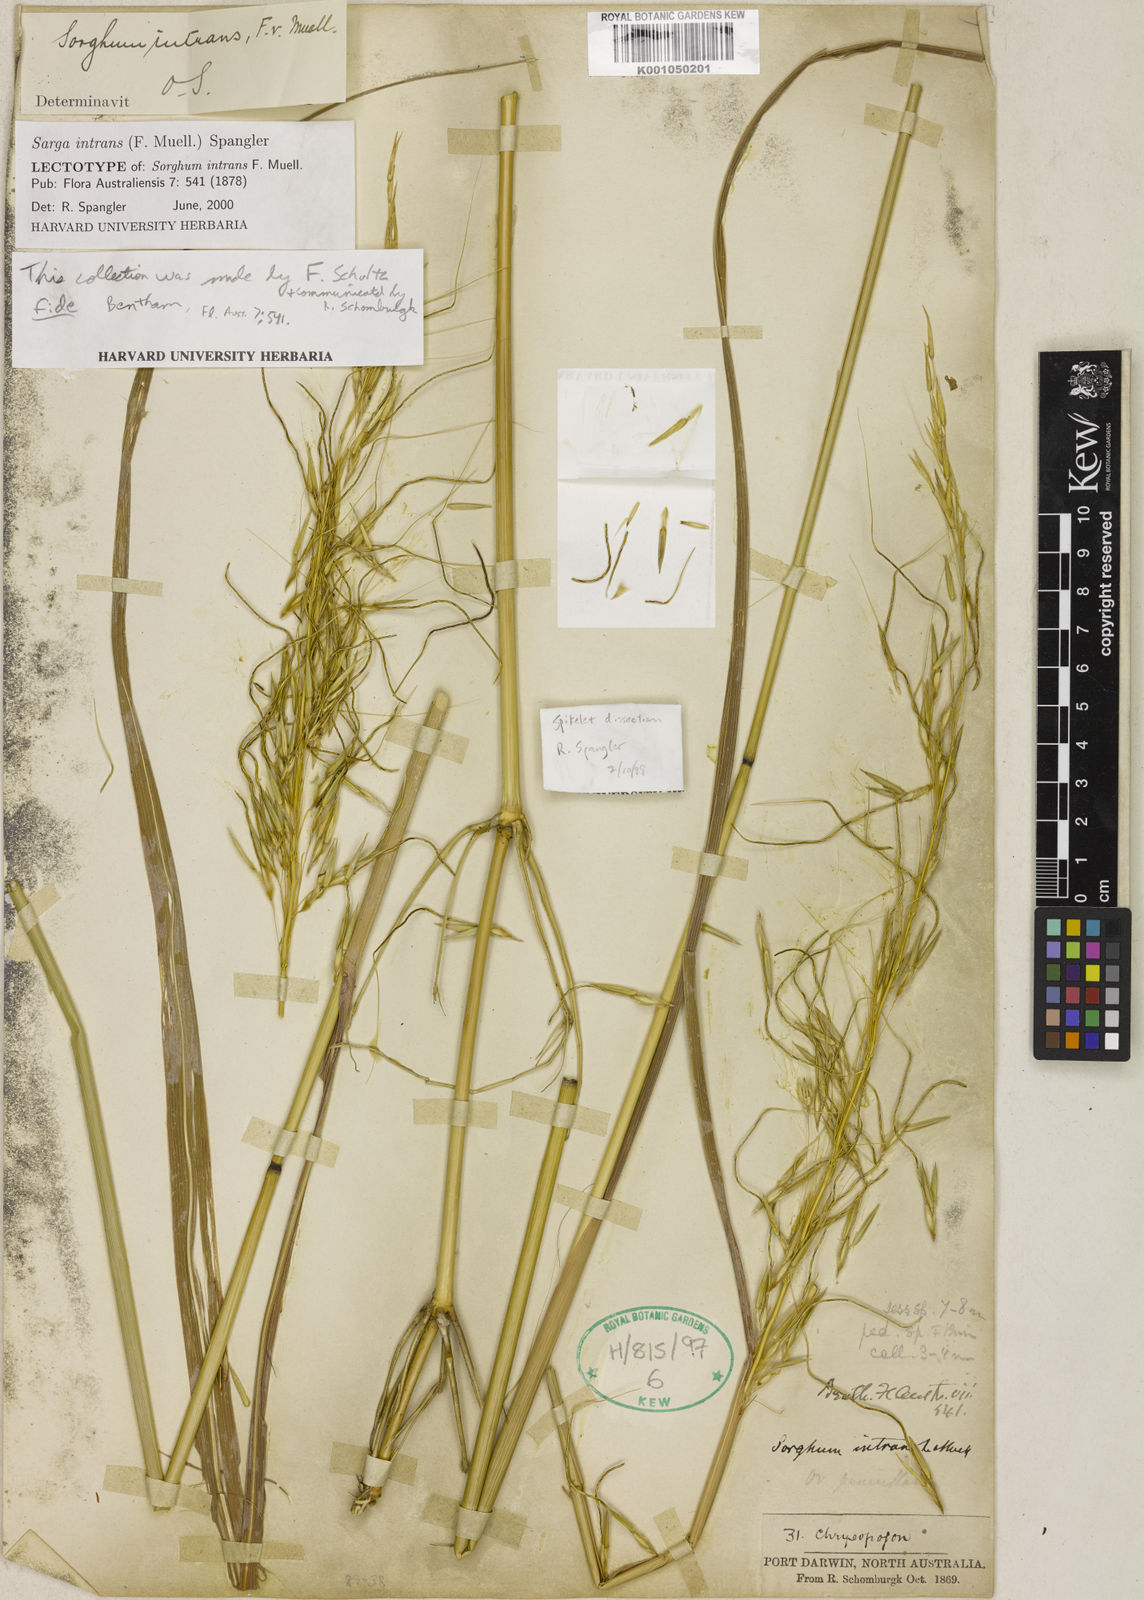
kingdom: Plantae
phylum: Tracheophyta
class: Liliopsida
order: Poales
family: Poaceae
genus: Sarga
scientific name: Sarga intrans
